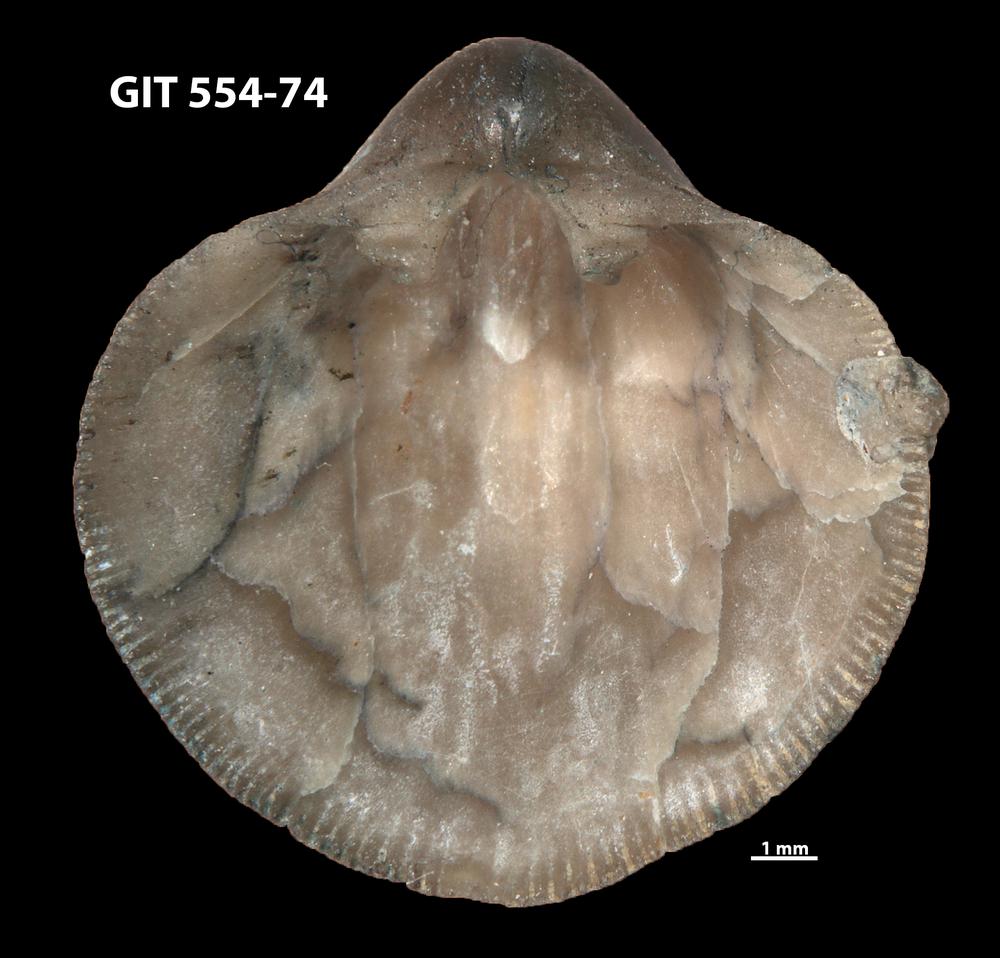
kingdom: Animalia
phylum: Brachiopoda
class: Rhynchonellata
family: Dalmanellidae
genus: Visbyella
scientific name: Visbyella Orthis visbyensis
